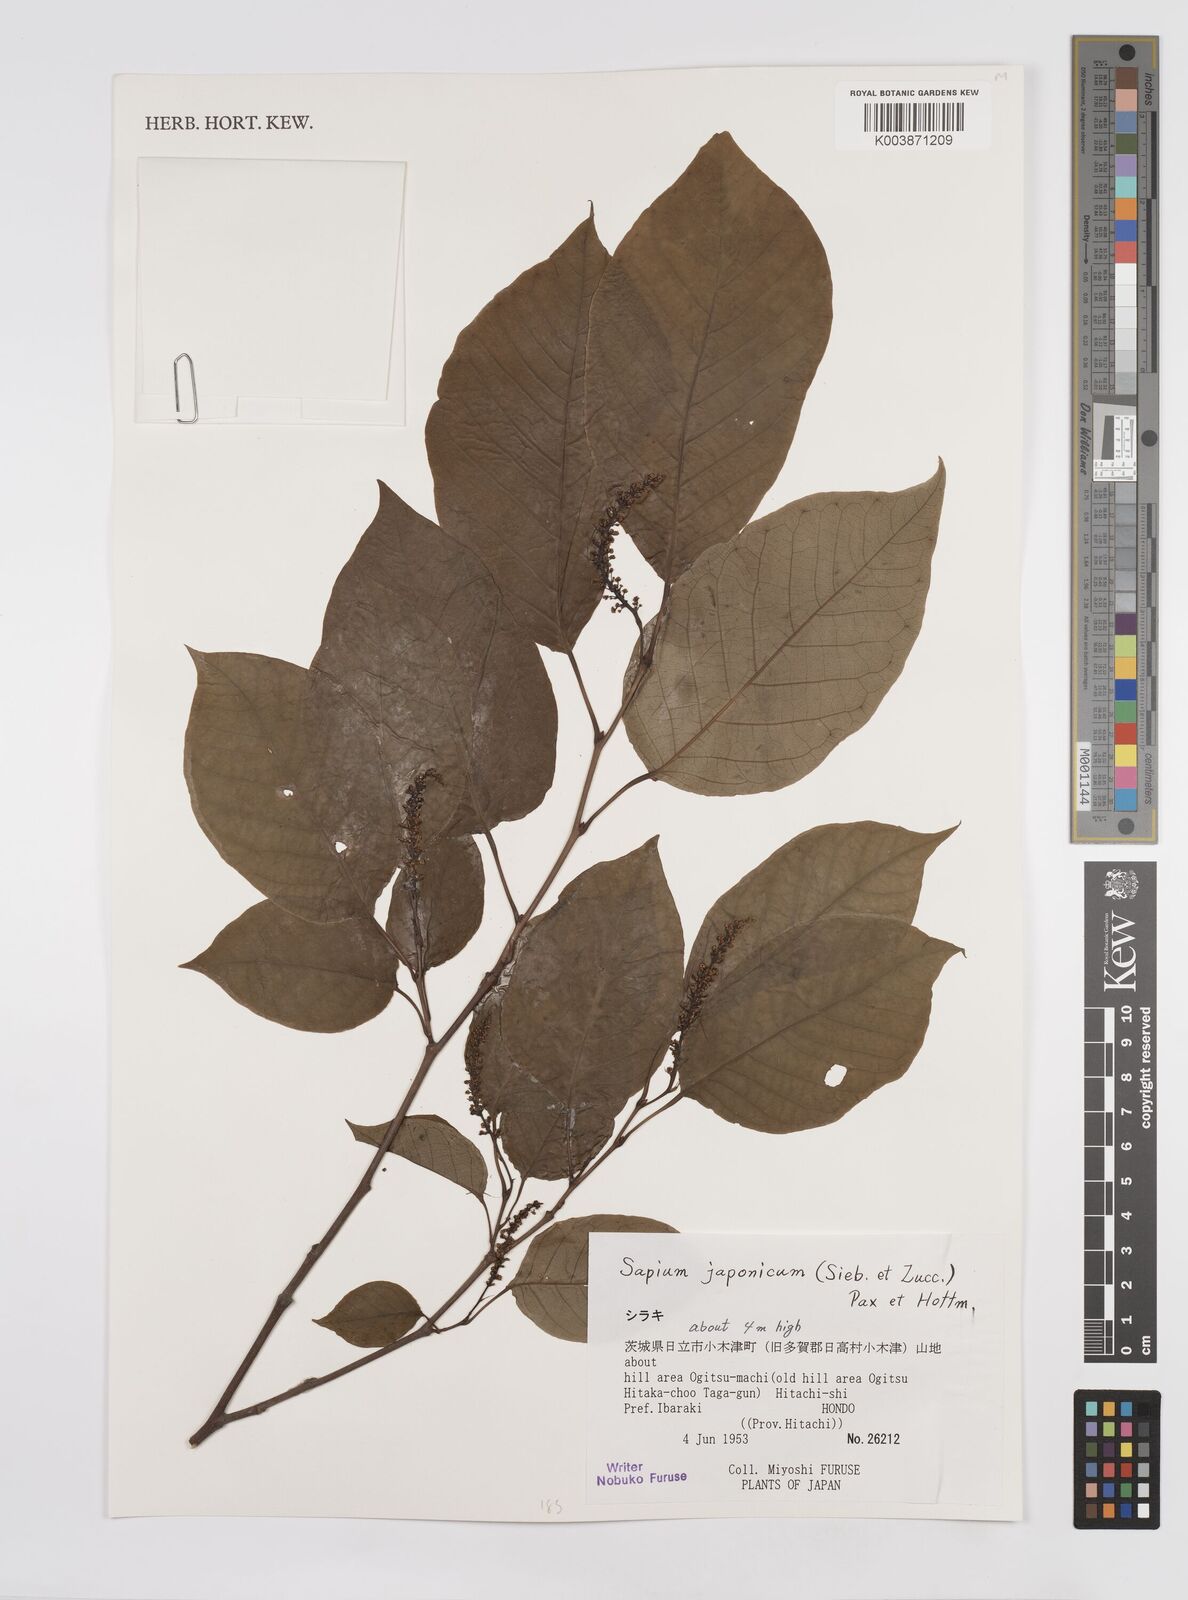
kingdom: Plantae
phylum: Tracheophyta
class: Magnoliopsida
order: Malpighiales
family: Euphorbiaceae
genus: Neoshirakia
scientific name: Neoshirakia japonica
